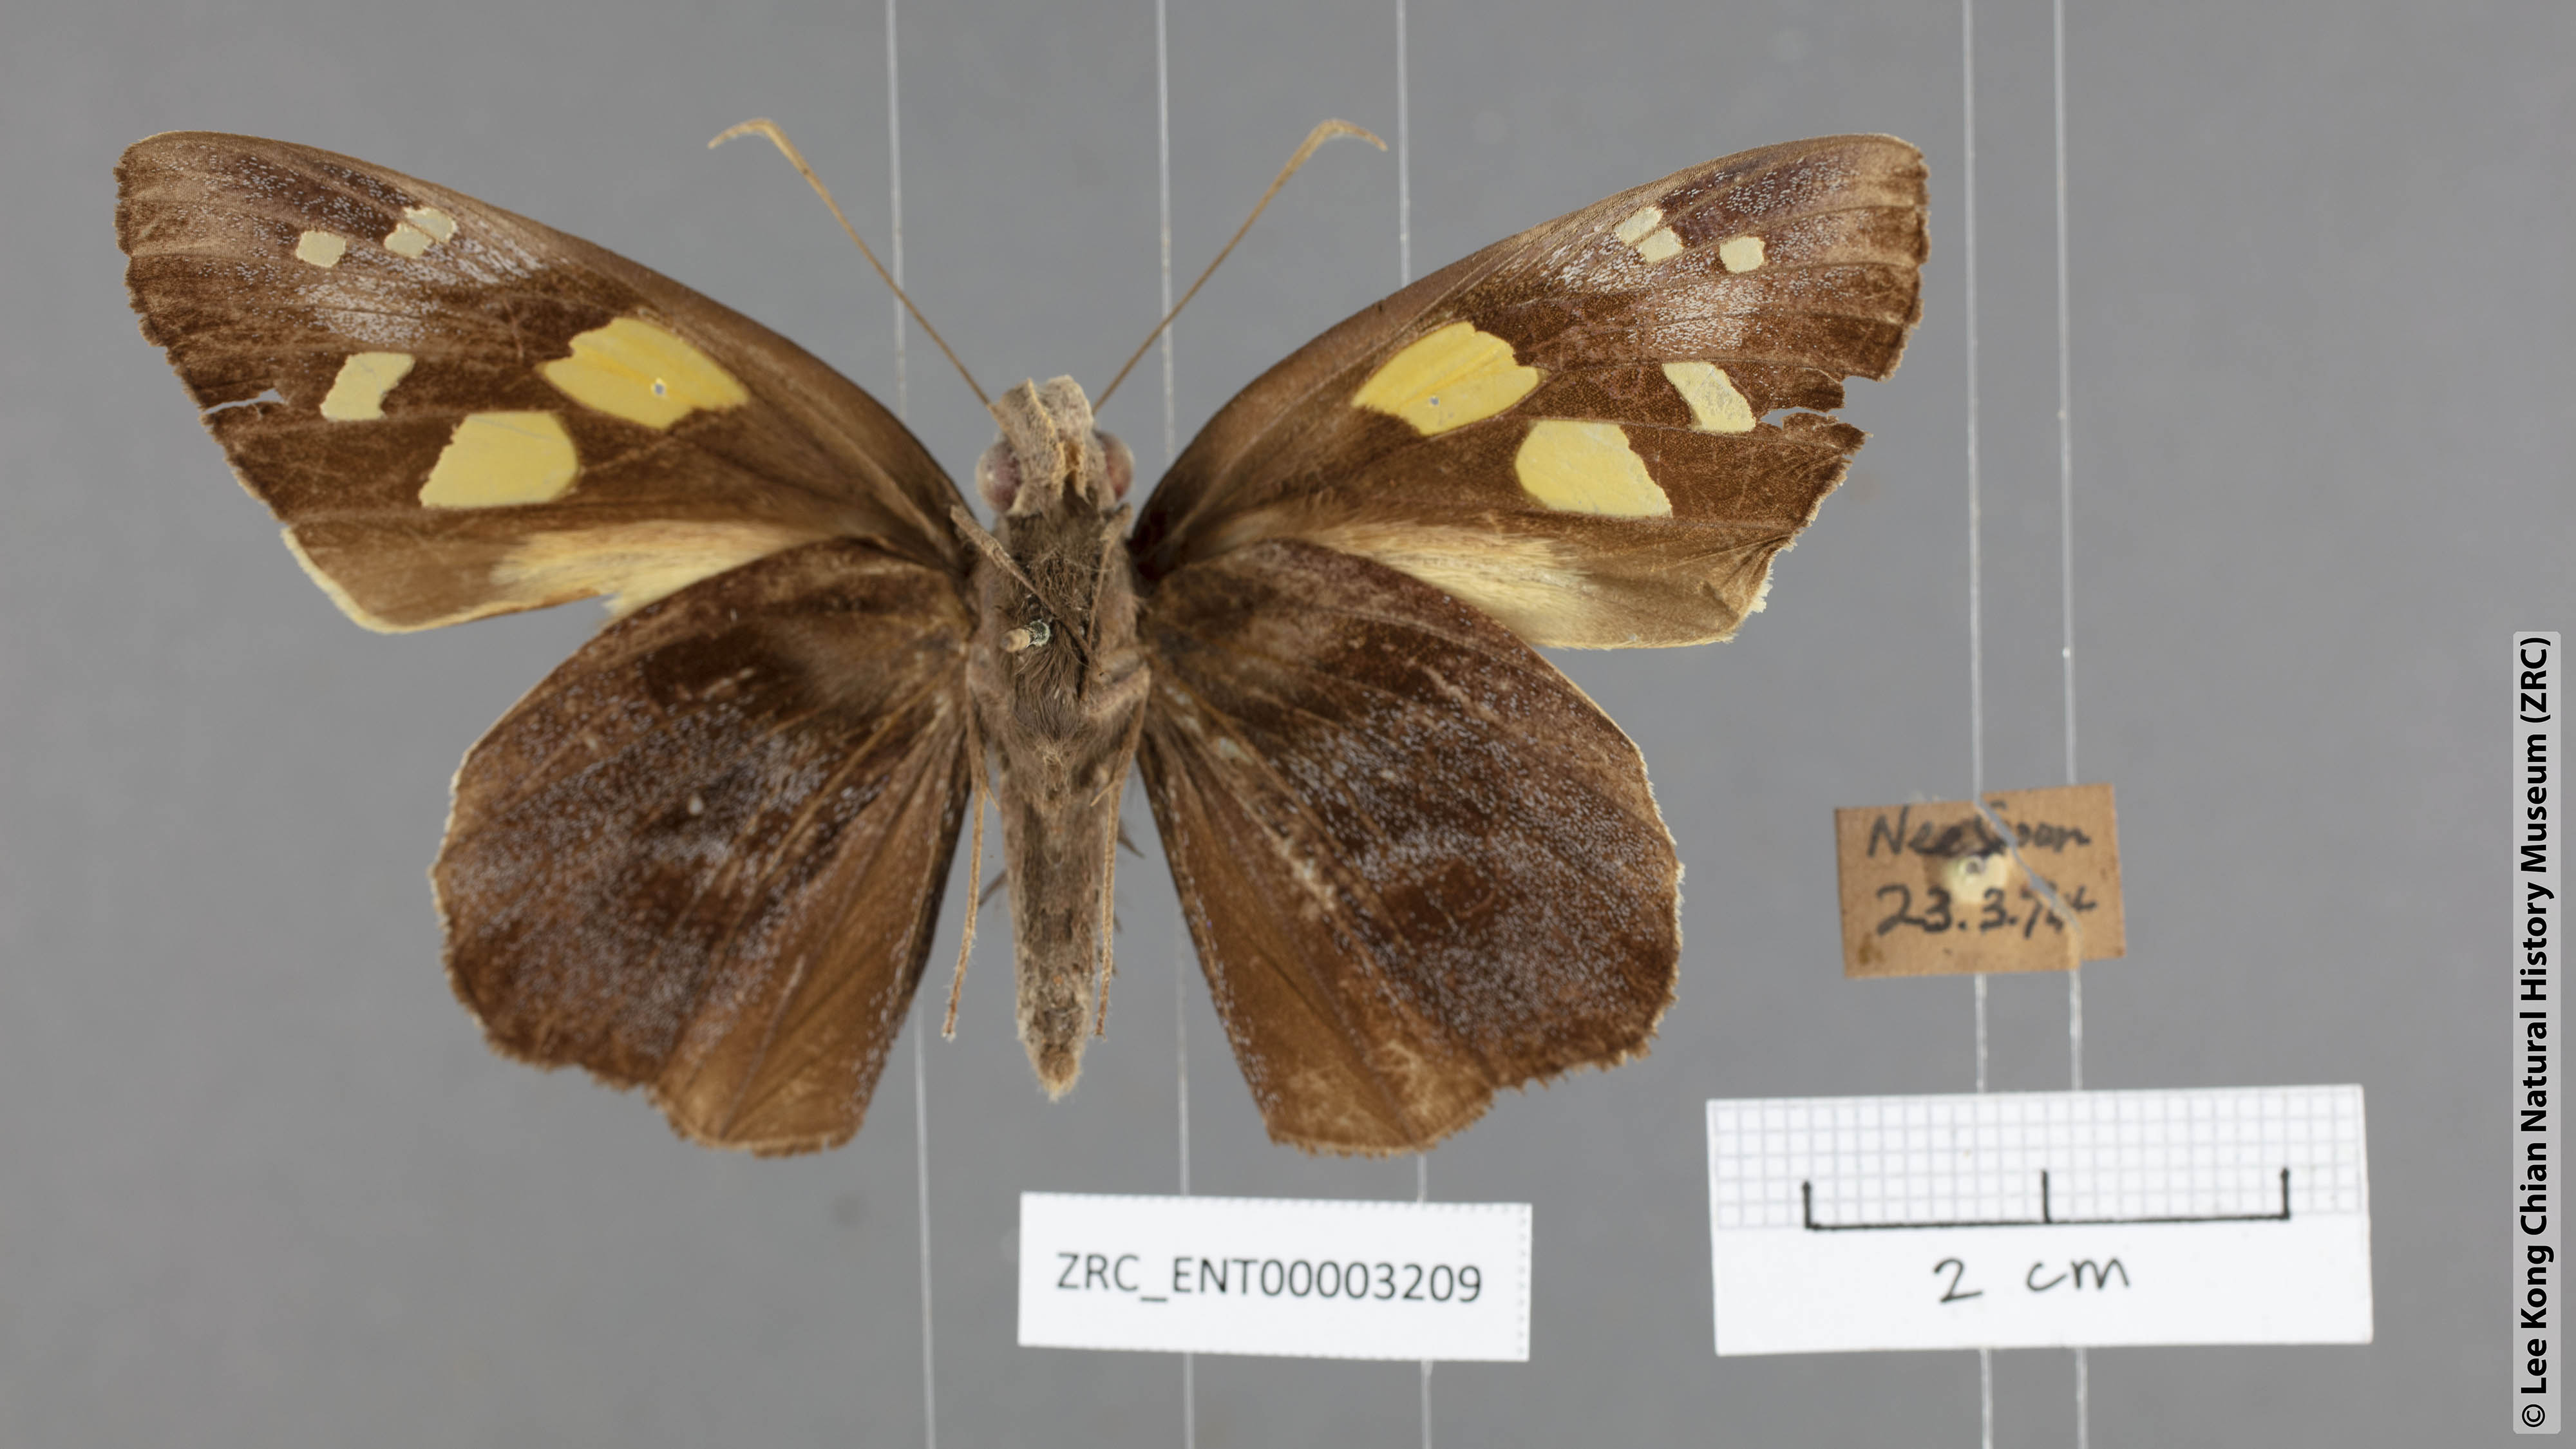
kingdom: Animalia
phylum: Arthropoda
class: Insecta
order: Lepidoptera
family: Hesperiidae
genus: Gangara
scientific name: Gangara thyrsis
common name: Giant redeye
